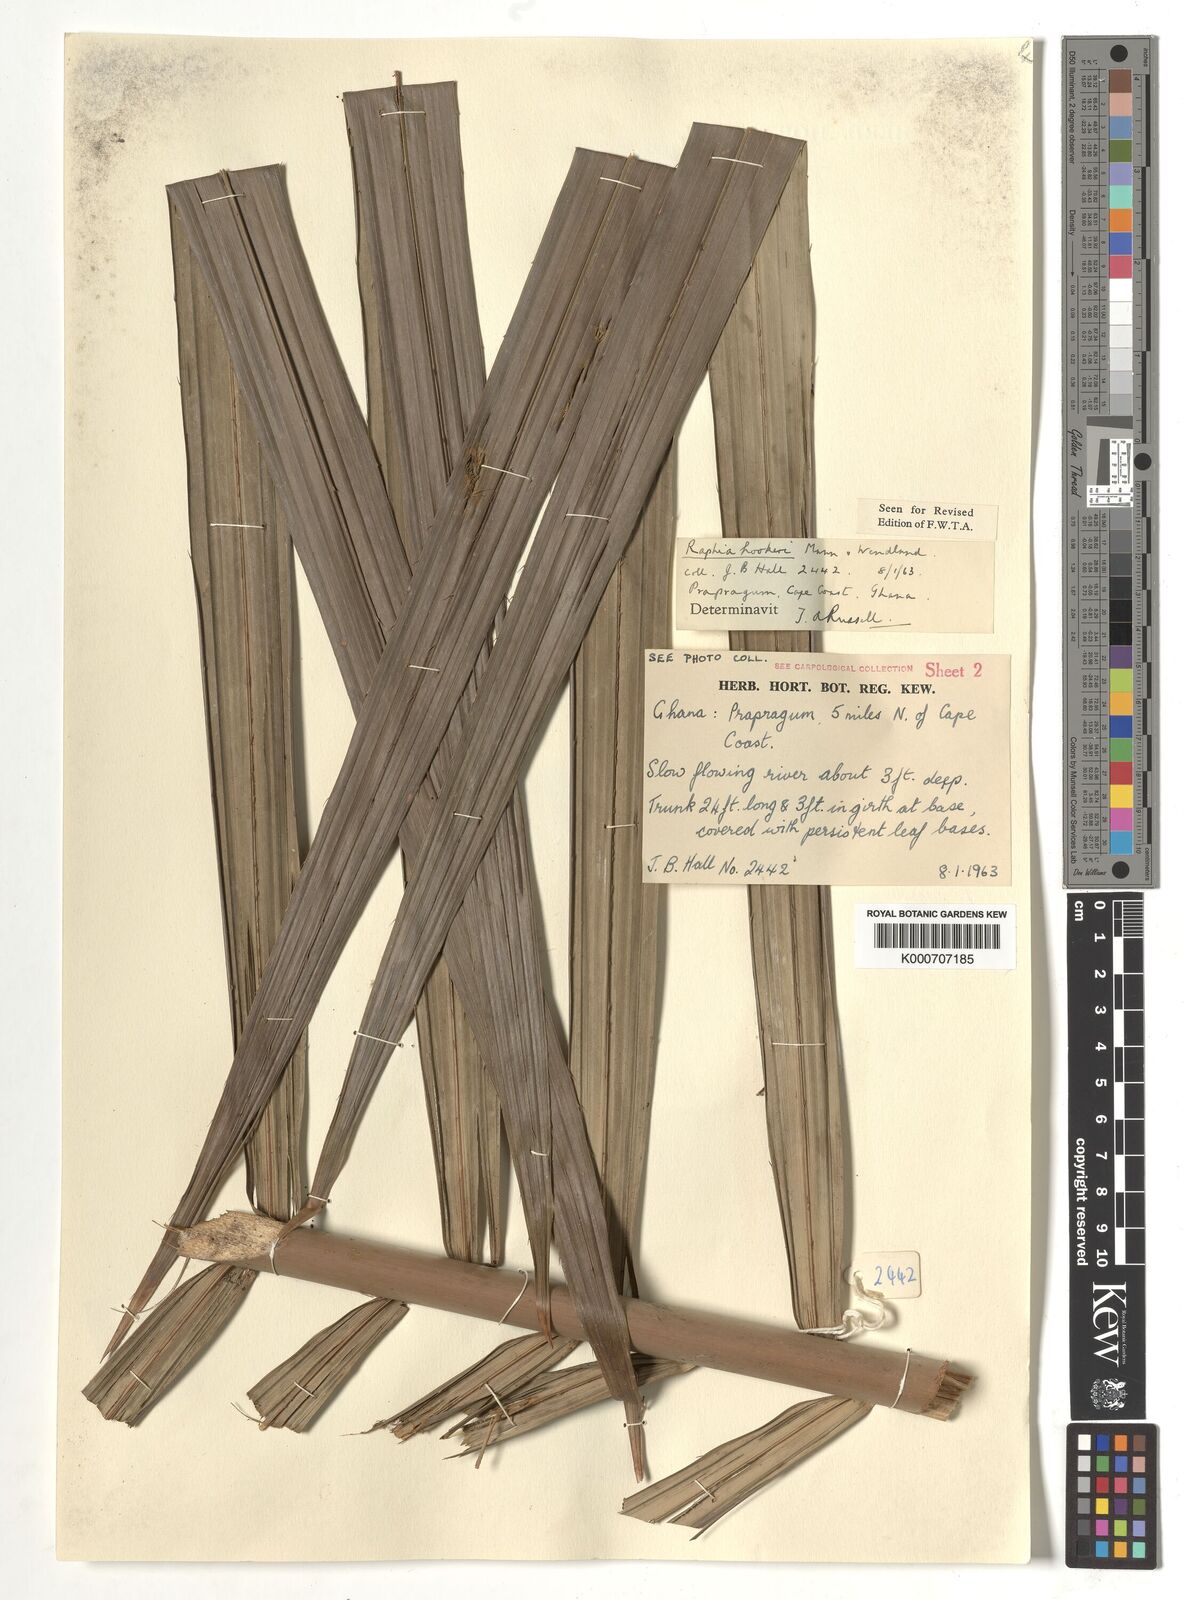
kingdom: Plantae
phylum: Tracheophyta
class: Liliopsida
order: Arecales
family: Arecaceae
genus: Raphia
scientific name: Raphia hookeri
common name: Wine palm
